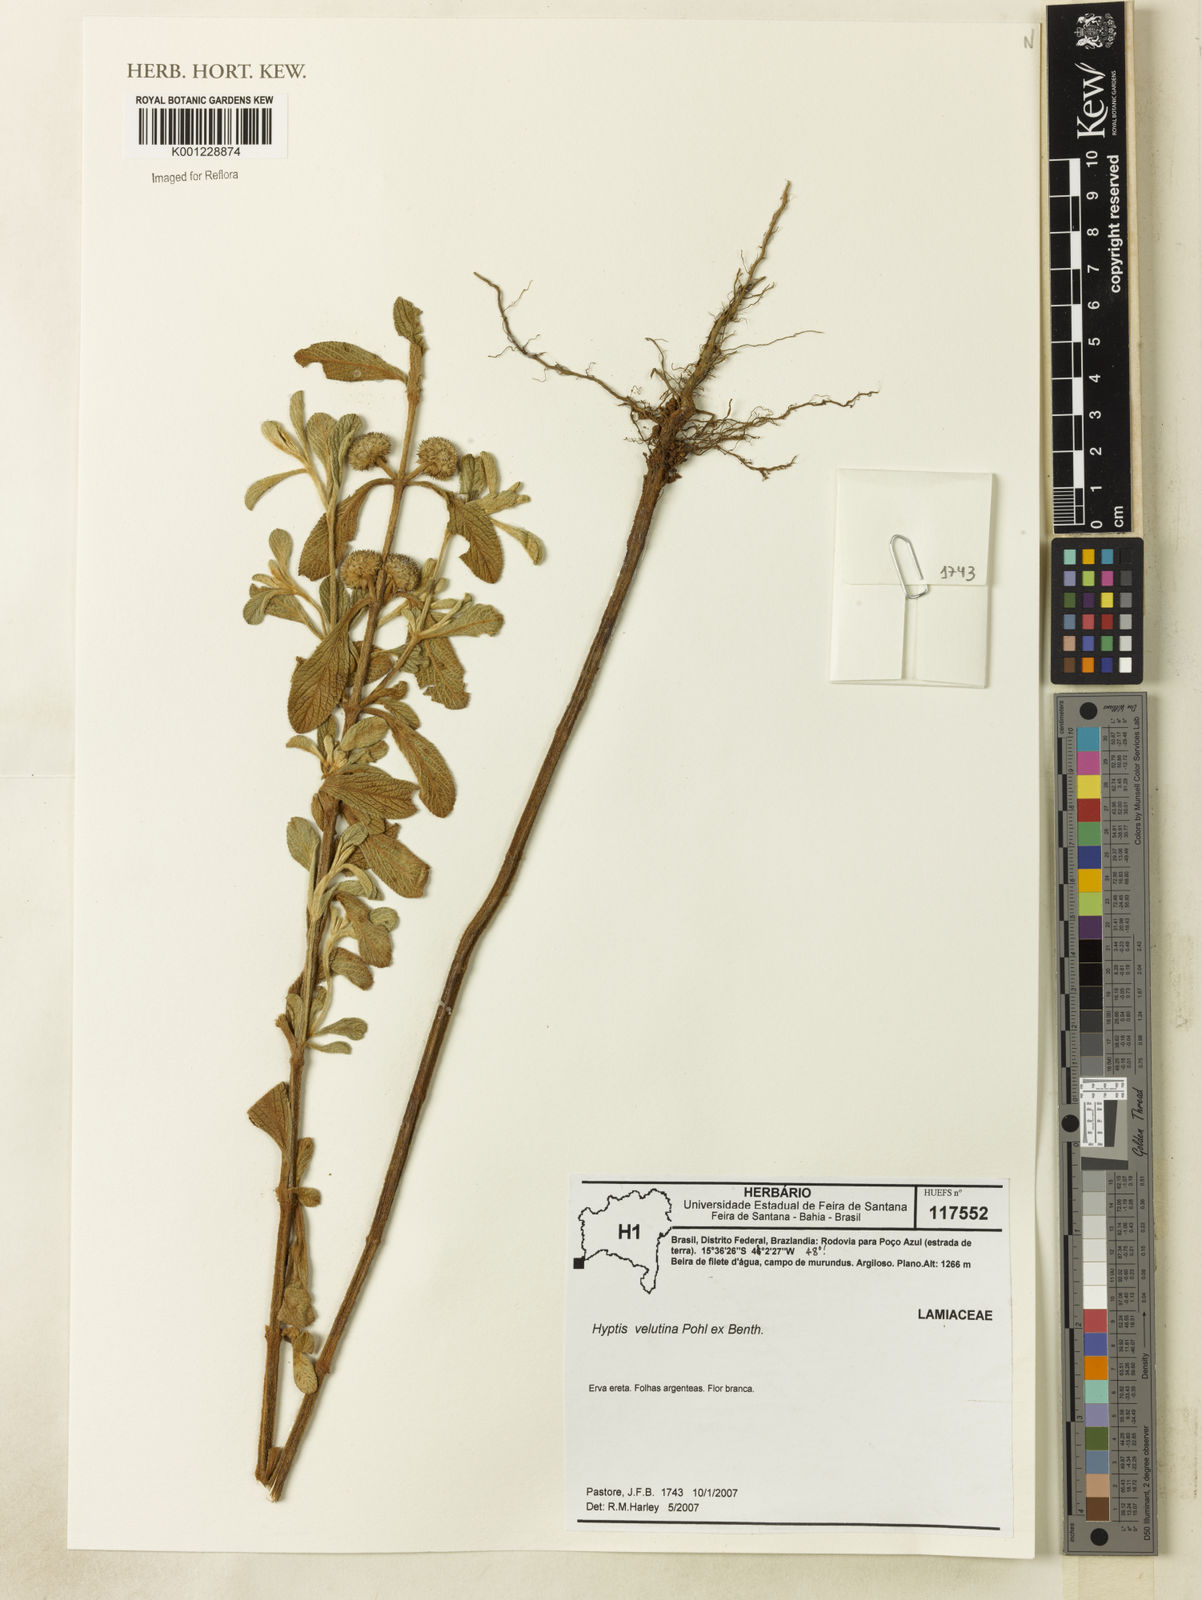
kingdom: Plantae
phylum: Tracheophyta
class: Magnoliopsida
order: Lamiales
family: Lamiaceae
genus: Hyptis
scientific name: Hyptis velutina
